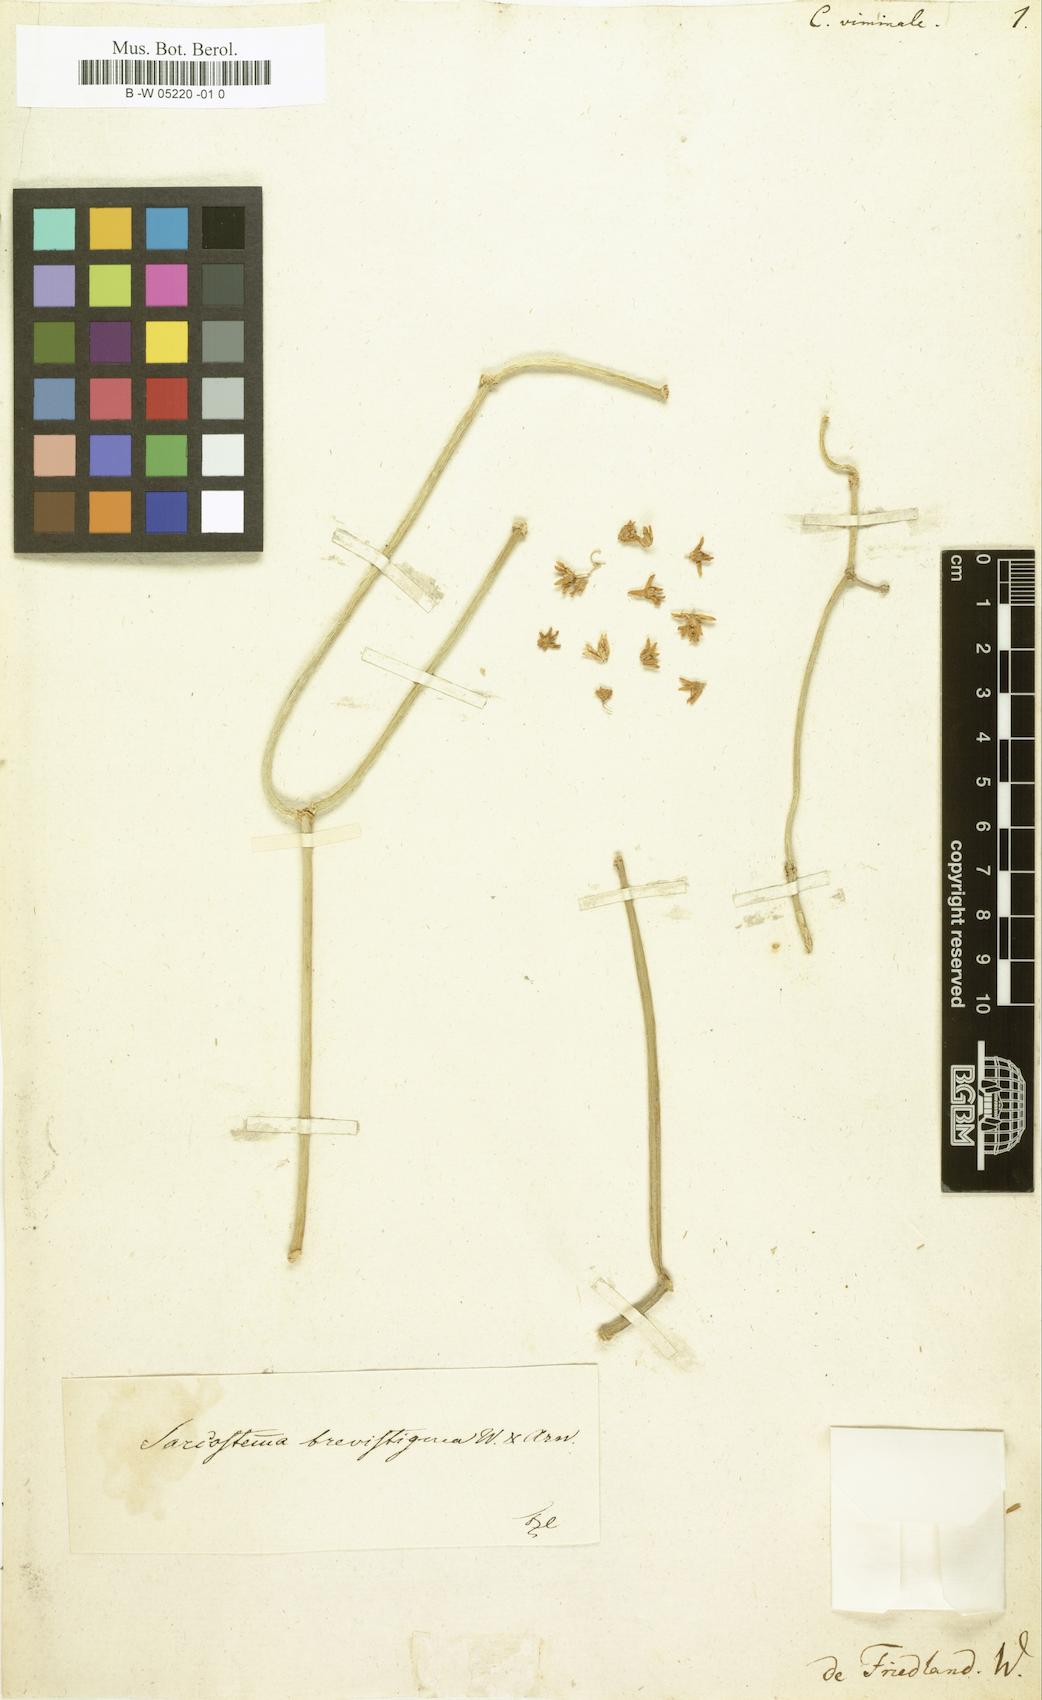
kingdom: Plantae
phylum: Tracheophyta
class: Magnoliopsida
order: Gentianales
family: Apocynaceae
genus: Cynanchum
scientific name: Cynanchum viminale
